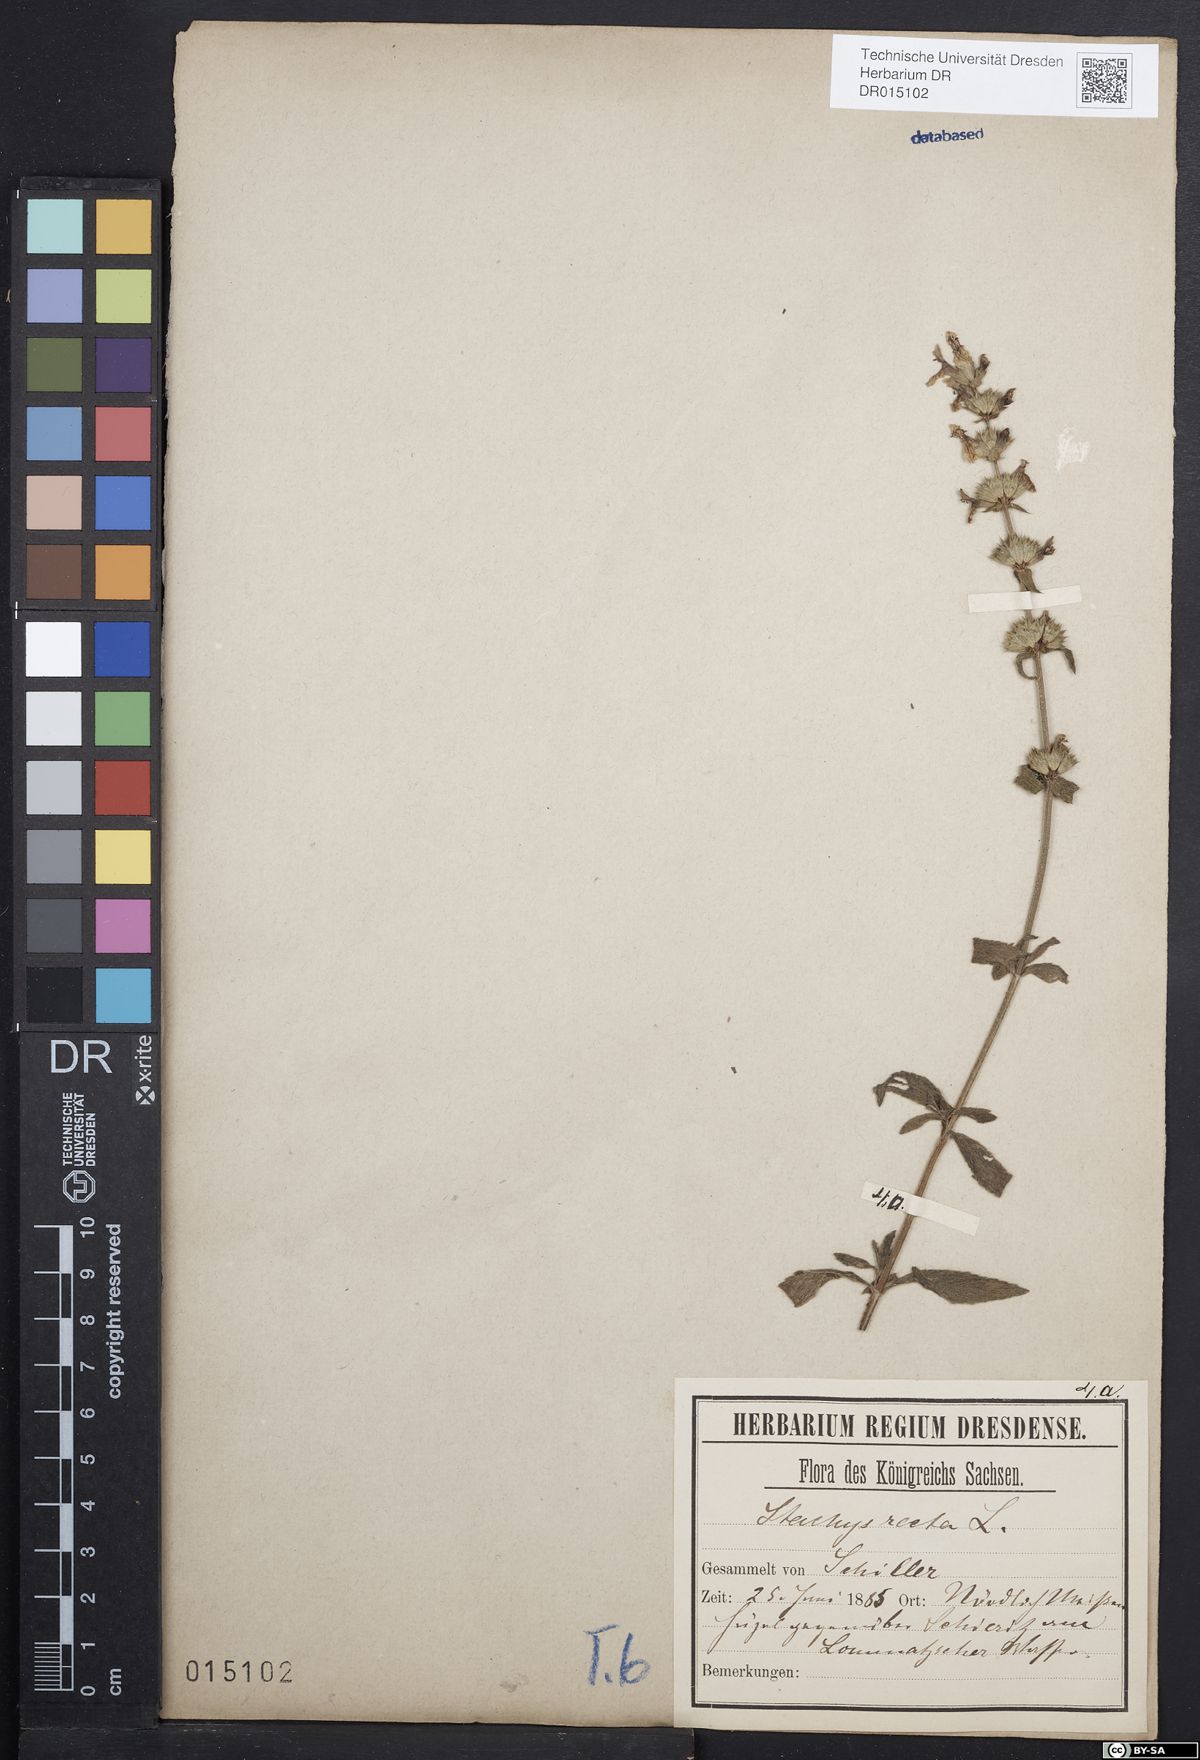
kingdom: Plantae
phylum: Tracheophyta
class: Magnoliopsida
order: Lamiales
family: Lamiaceae
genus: Stachys
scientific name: Stachys recta
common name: Perennial yellow-woundwort
